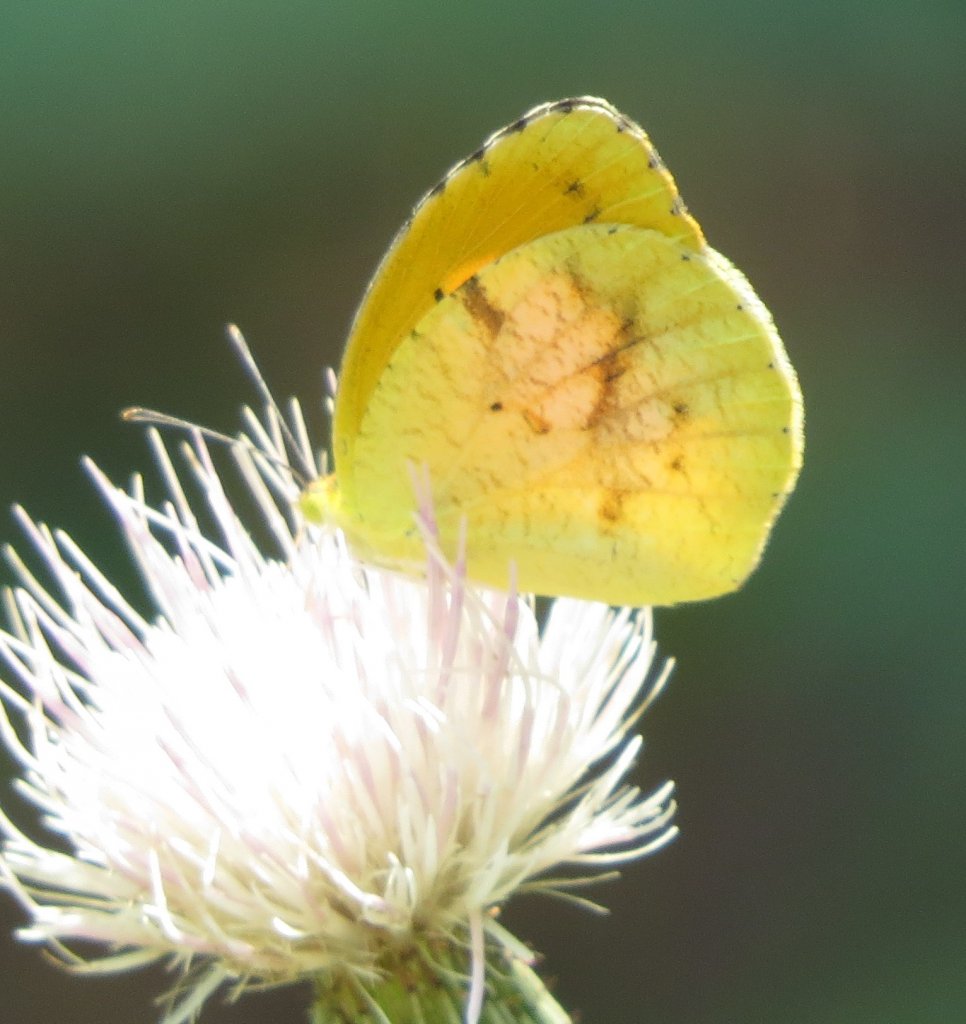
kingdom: Animalia
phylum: Arthropoda
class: Insecta
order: Lepidoptera
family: Pieridae
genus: Abaeis
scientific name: Abaeis nicippe
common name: Sleepy Orange
